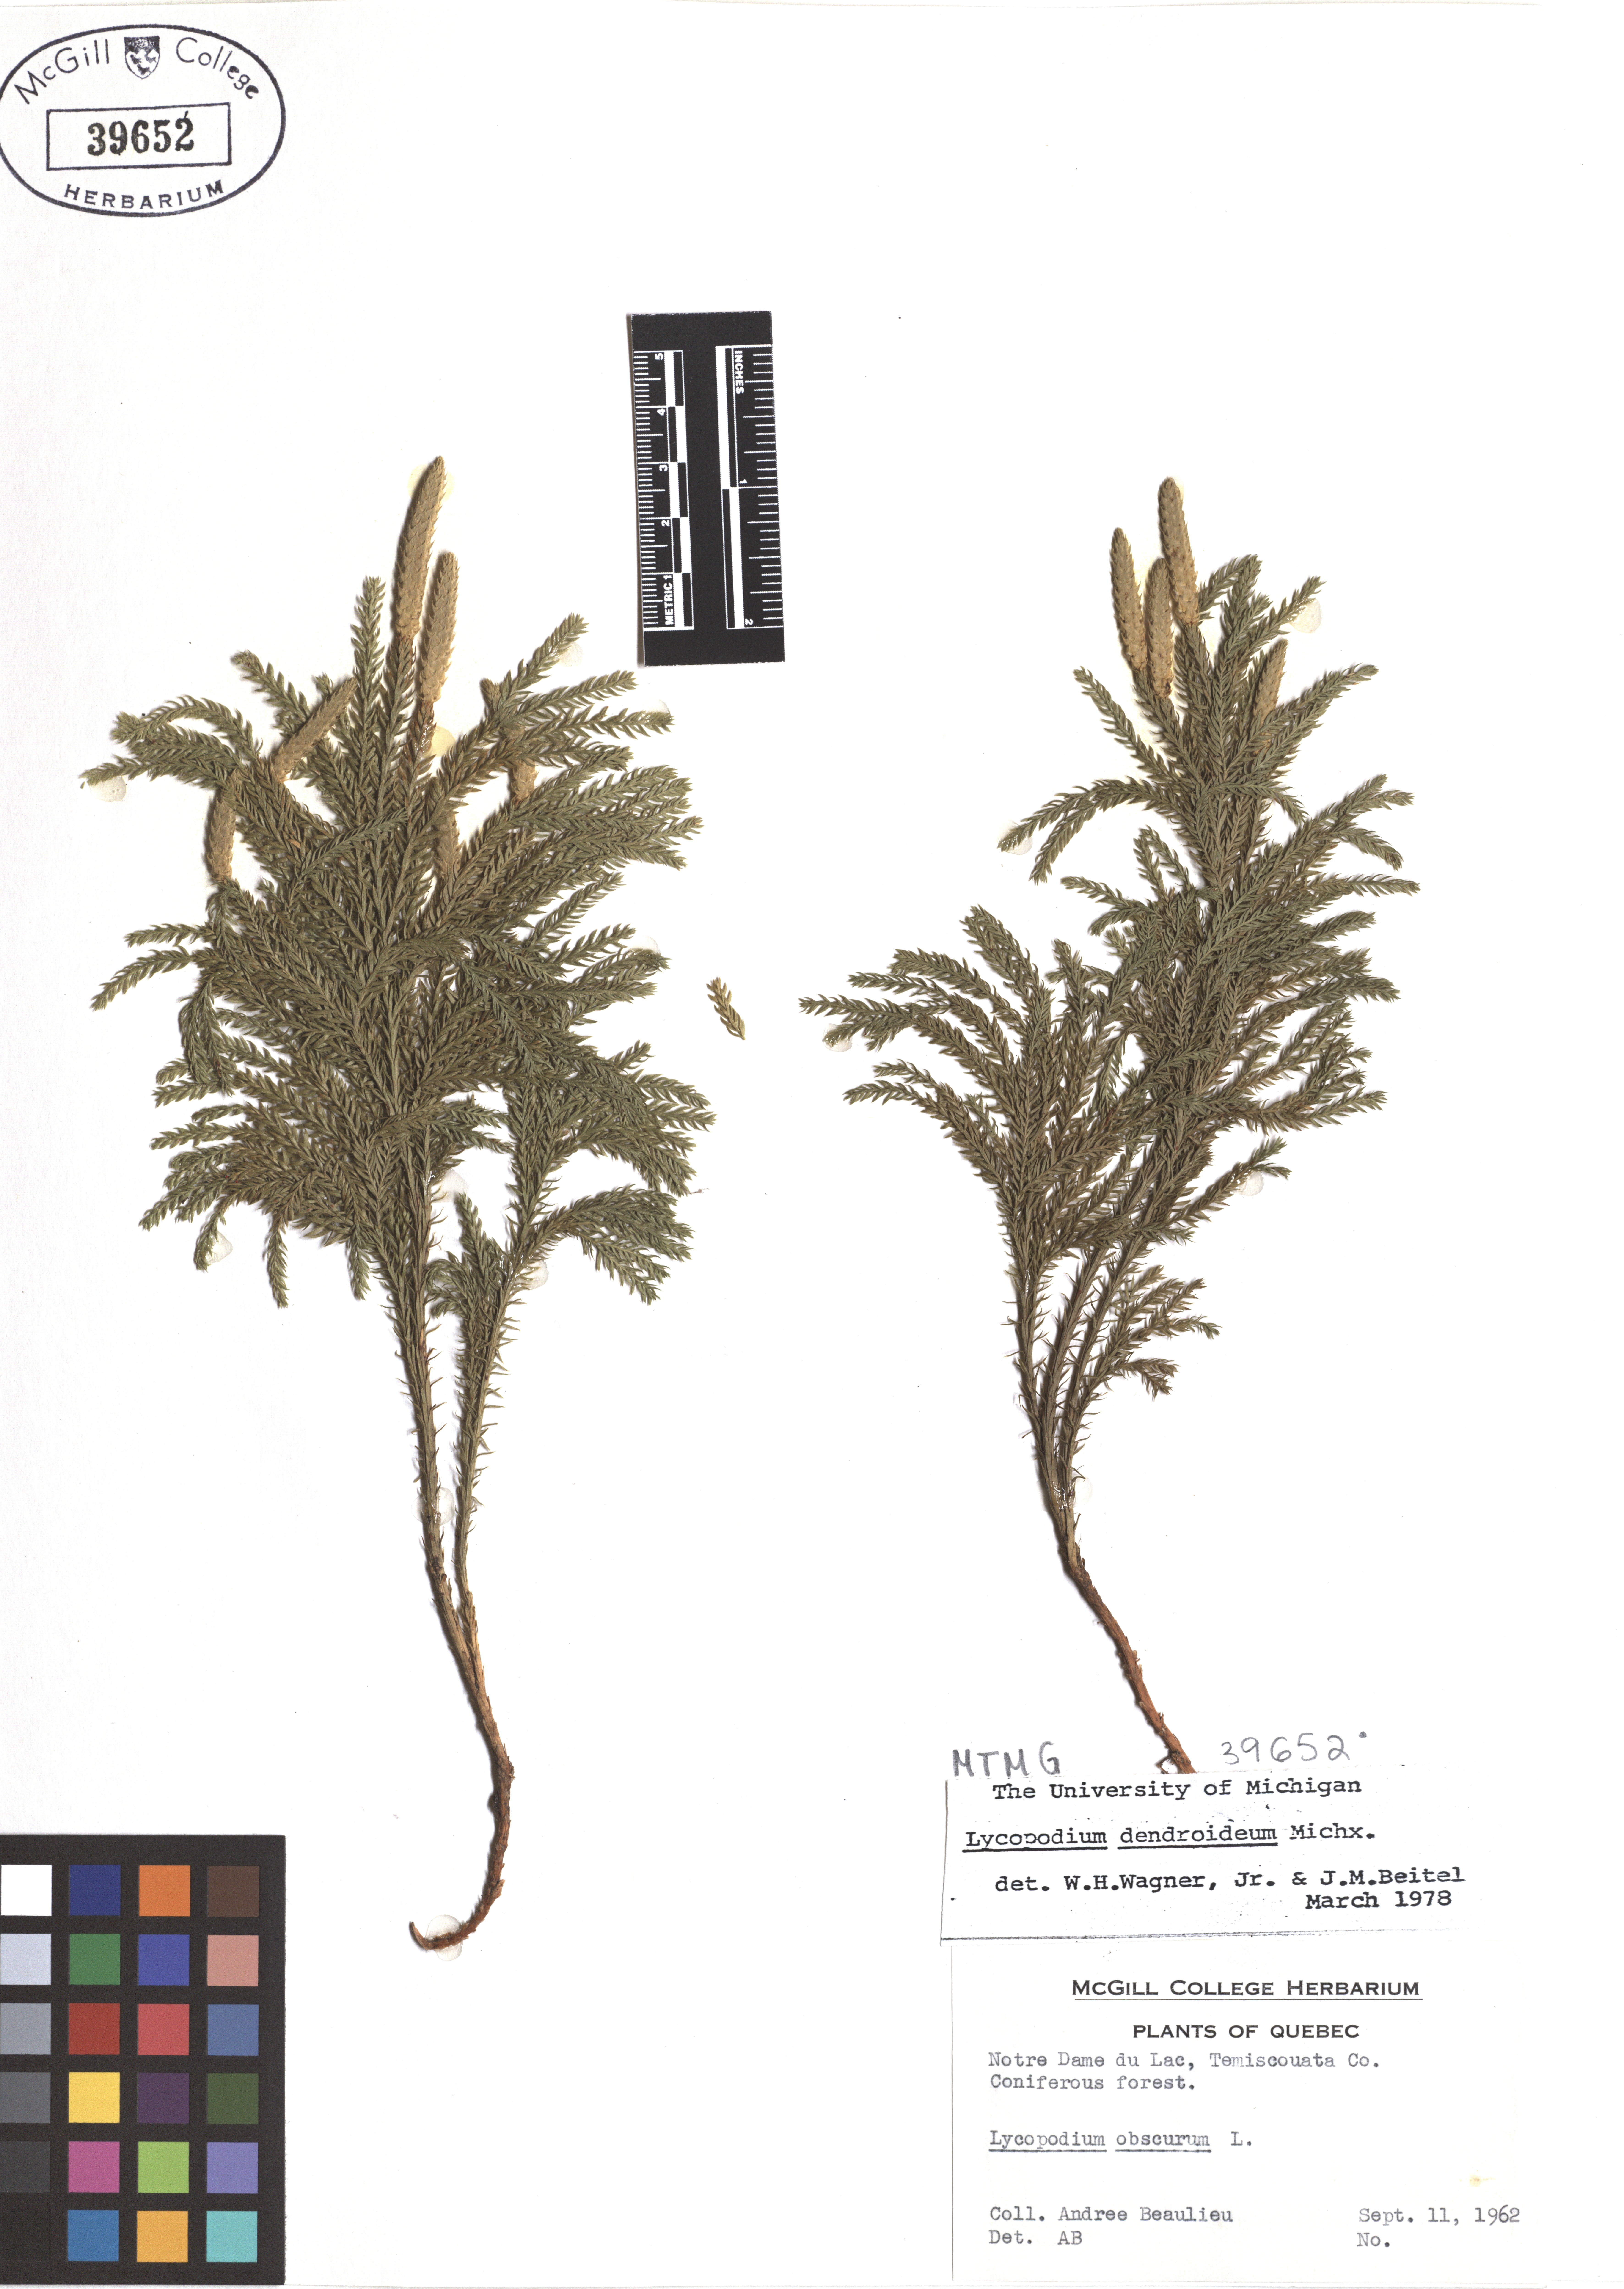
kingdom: Plantae
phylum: Tracheophyta
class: Lycopodiopsida
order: Lycopodiales
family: Lycopodiaceae
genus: Dendrolycopodium
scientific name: Dendrolycopodium dendroideum
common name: Northern tree-clubmoss
